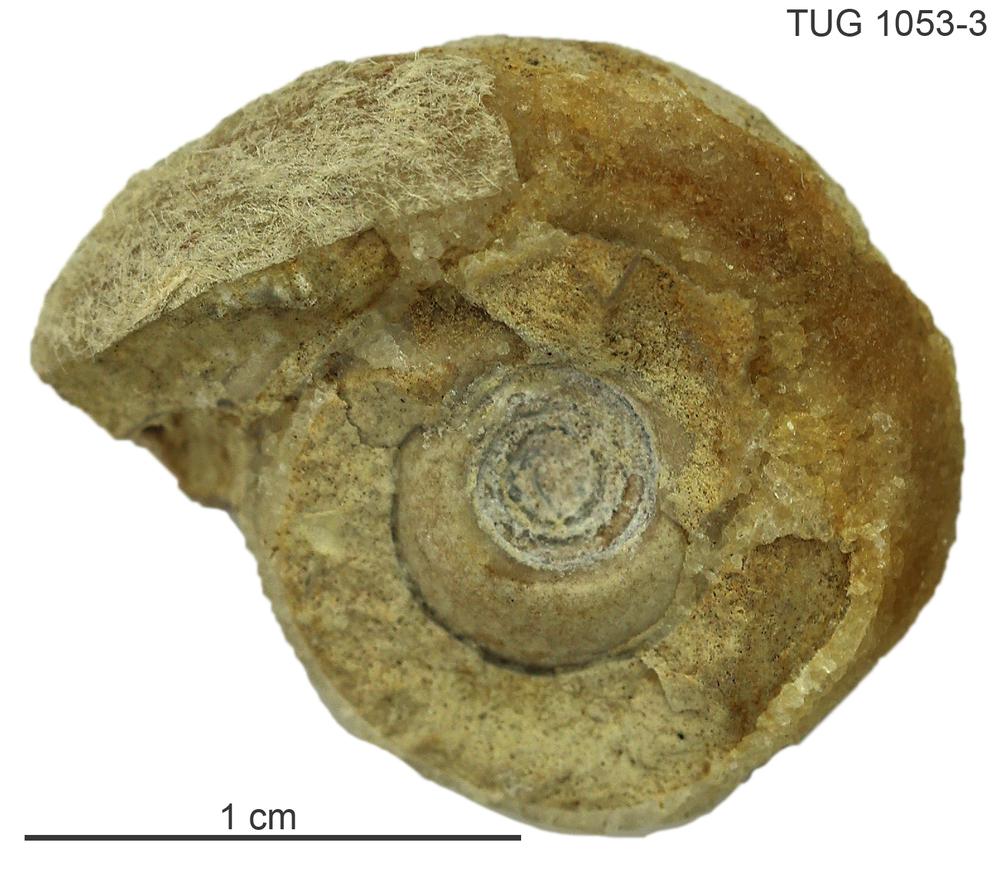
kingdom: Animalia
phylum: Mollusca
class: Gastropoda
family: Bellerophontidae
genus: Oxydiscus
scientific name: Oxydiscus karki
